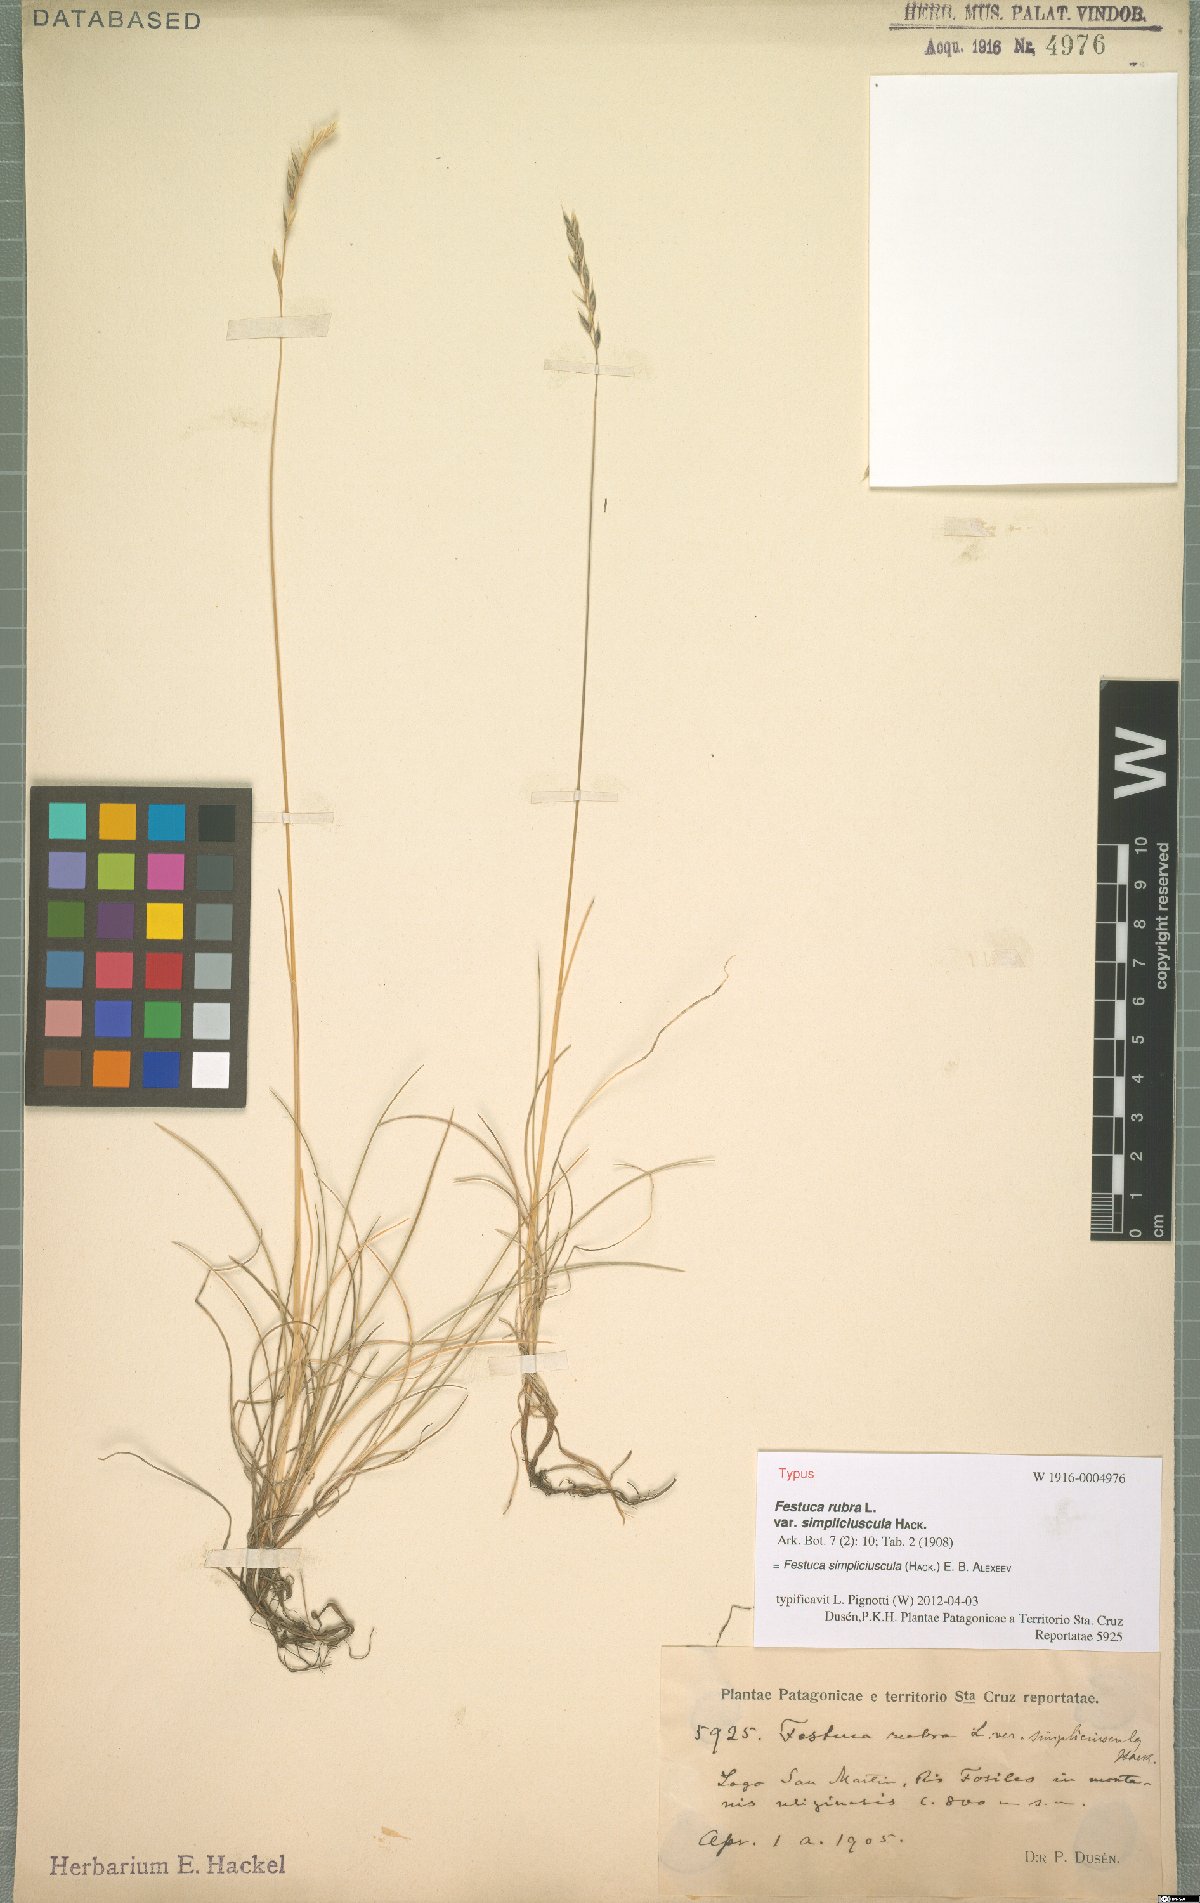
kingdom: Plantae
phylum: Tracheophyta
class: Liliopsida
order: Poales
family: Poaceae
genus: Festuca
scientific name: Festuca simpliciuscula
